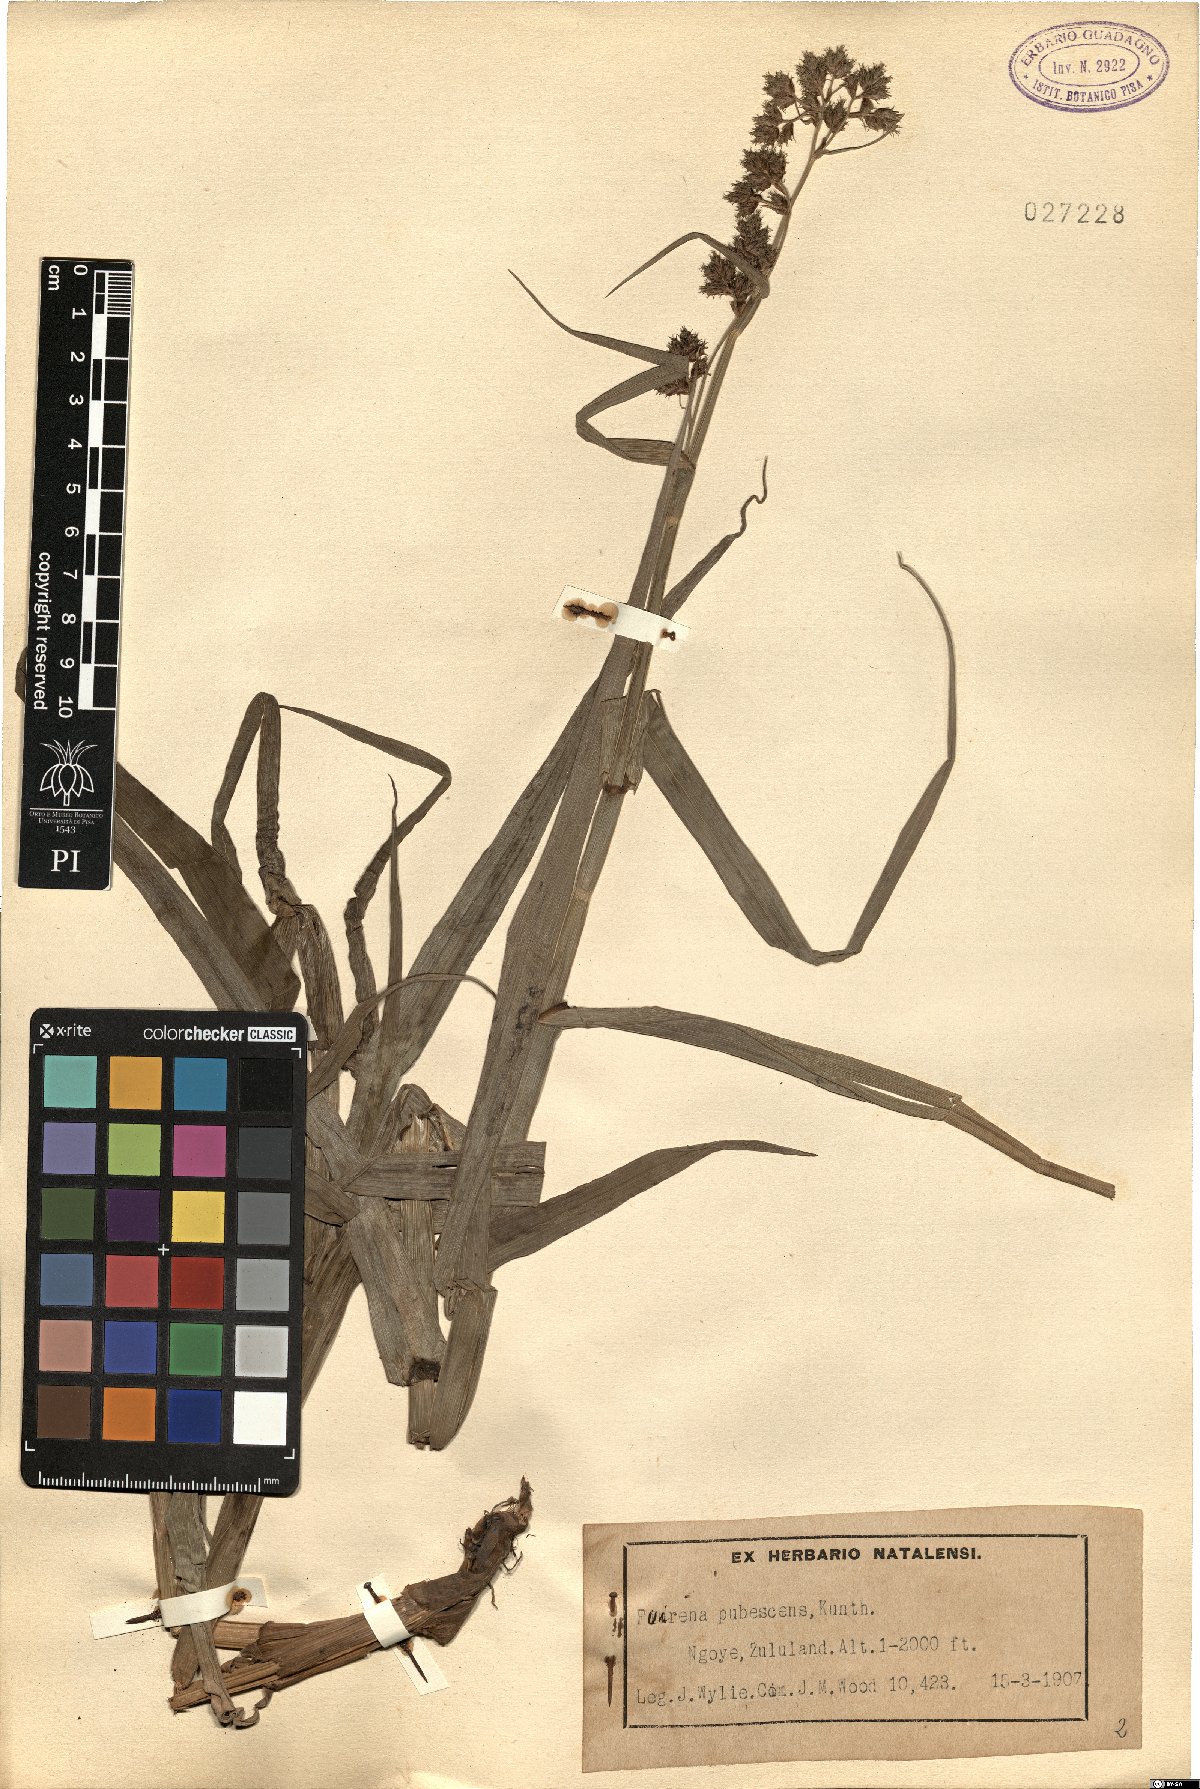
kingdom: Plantae
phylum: Tracheophyta
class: Liliopsida
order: Poales
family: Cyperaceae
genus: Fuirena
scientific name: Fuirena pubescens
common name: Hairy sedge
